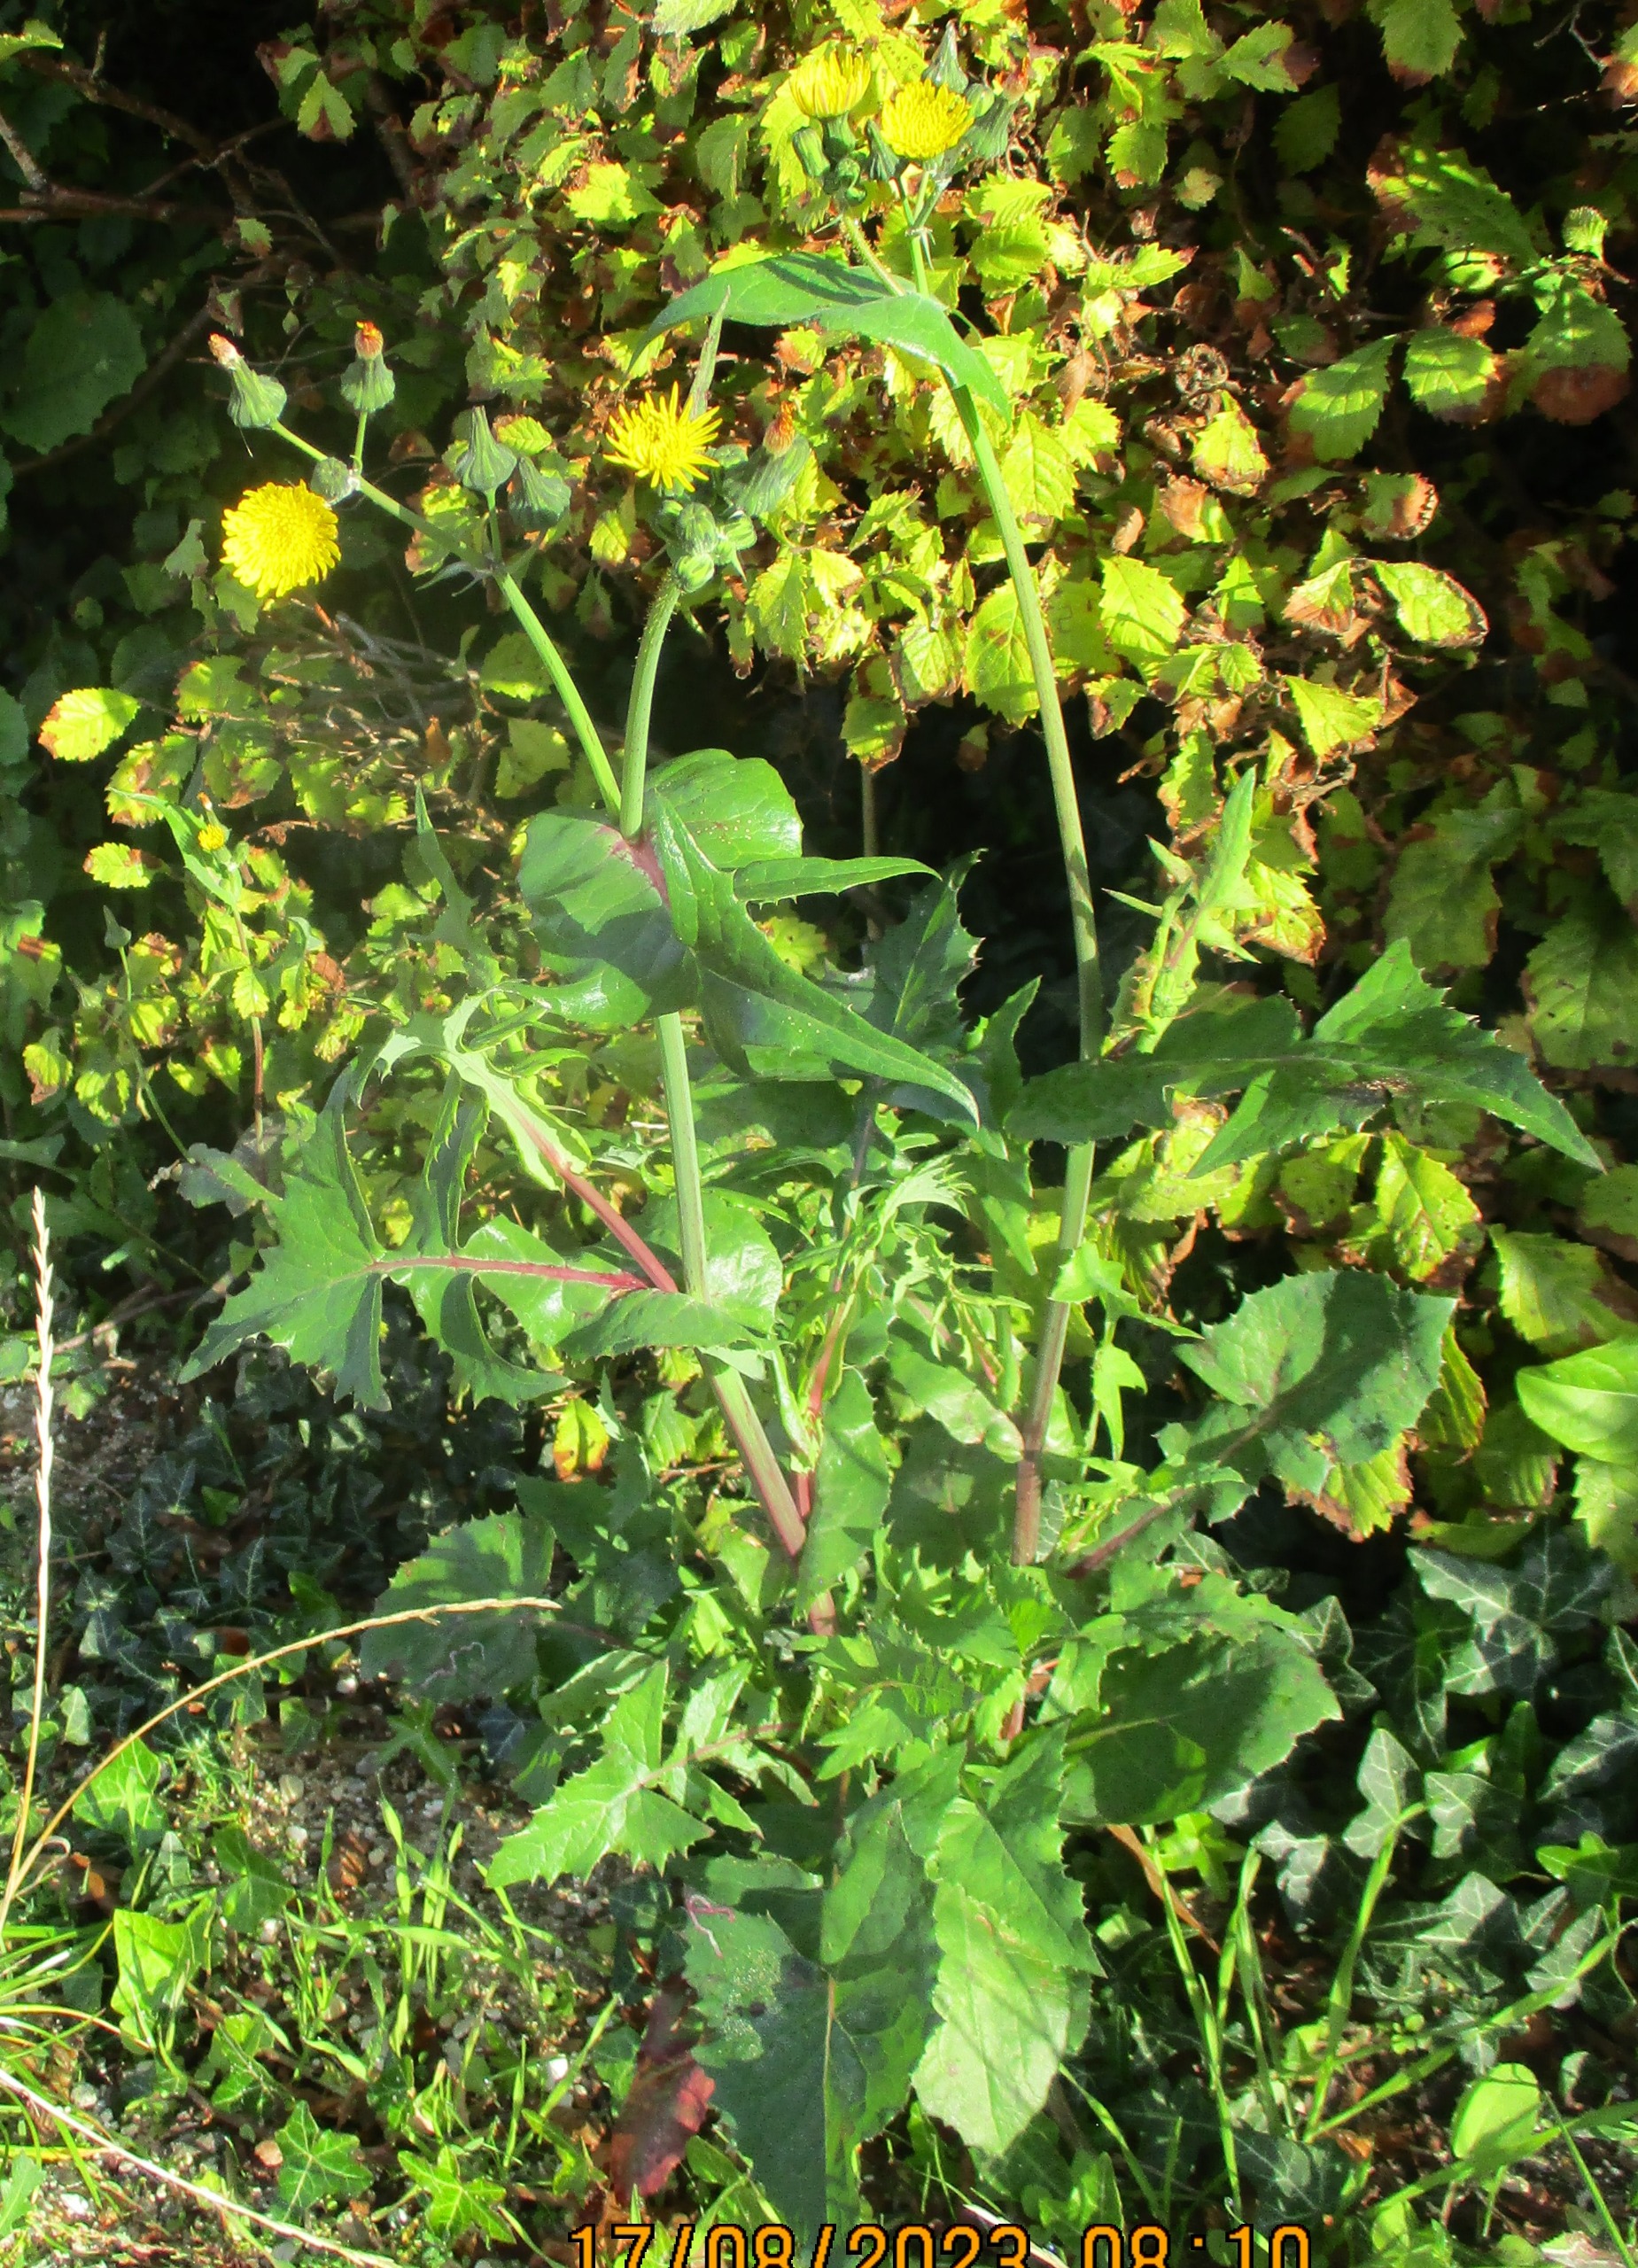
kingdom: Plantae
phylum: Tracheophyta
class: Magnoliopsida
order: Asterales
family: Asteraceae
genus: Sonchus
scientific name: Sonchus oleraceus
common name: Almindelig svinemælk
